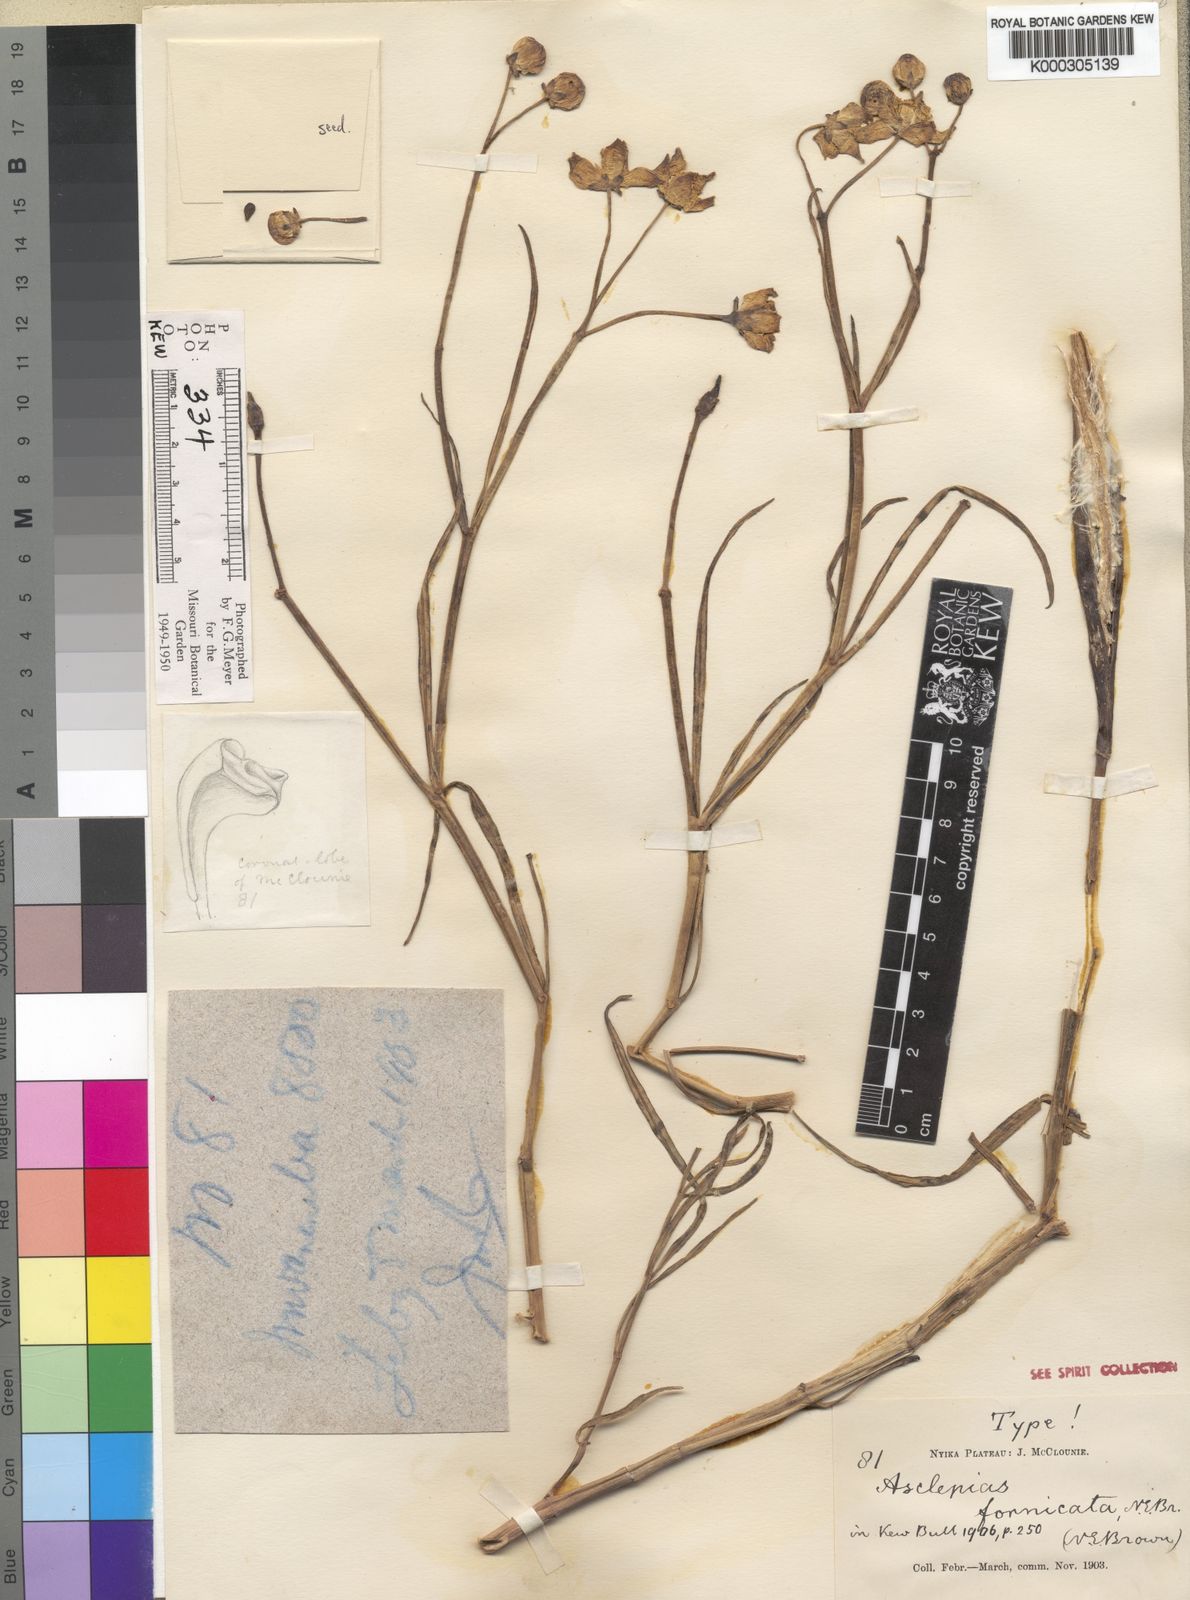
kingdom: Plantae
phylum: Tracheophyta
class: Magnoliopsida
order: Gentianales
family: Apocynaceae
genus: Stathmostelma
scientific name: Stathmostelma fornicatum
